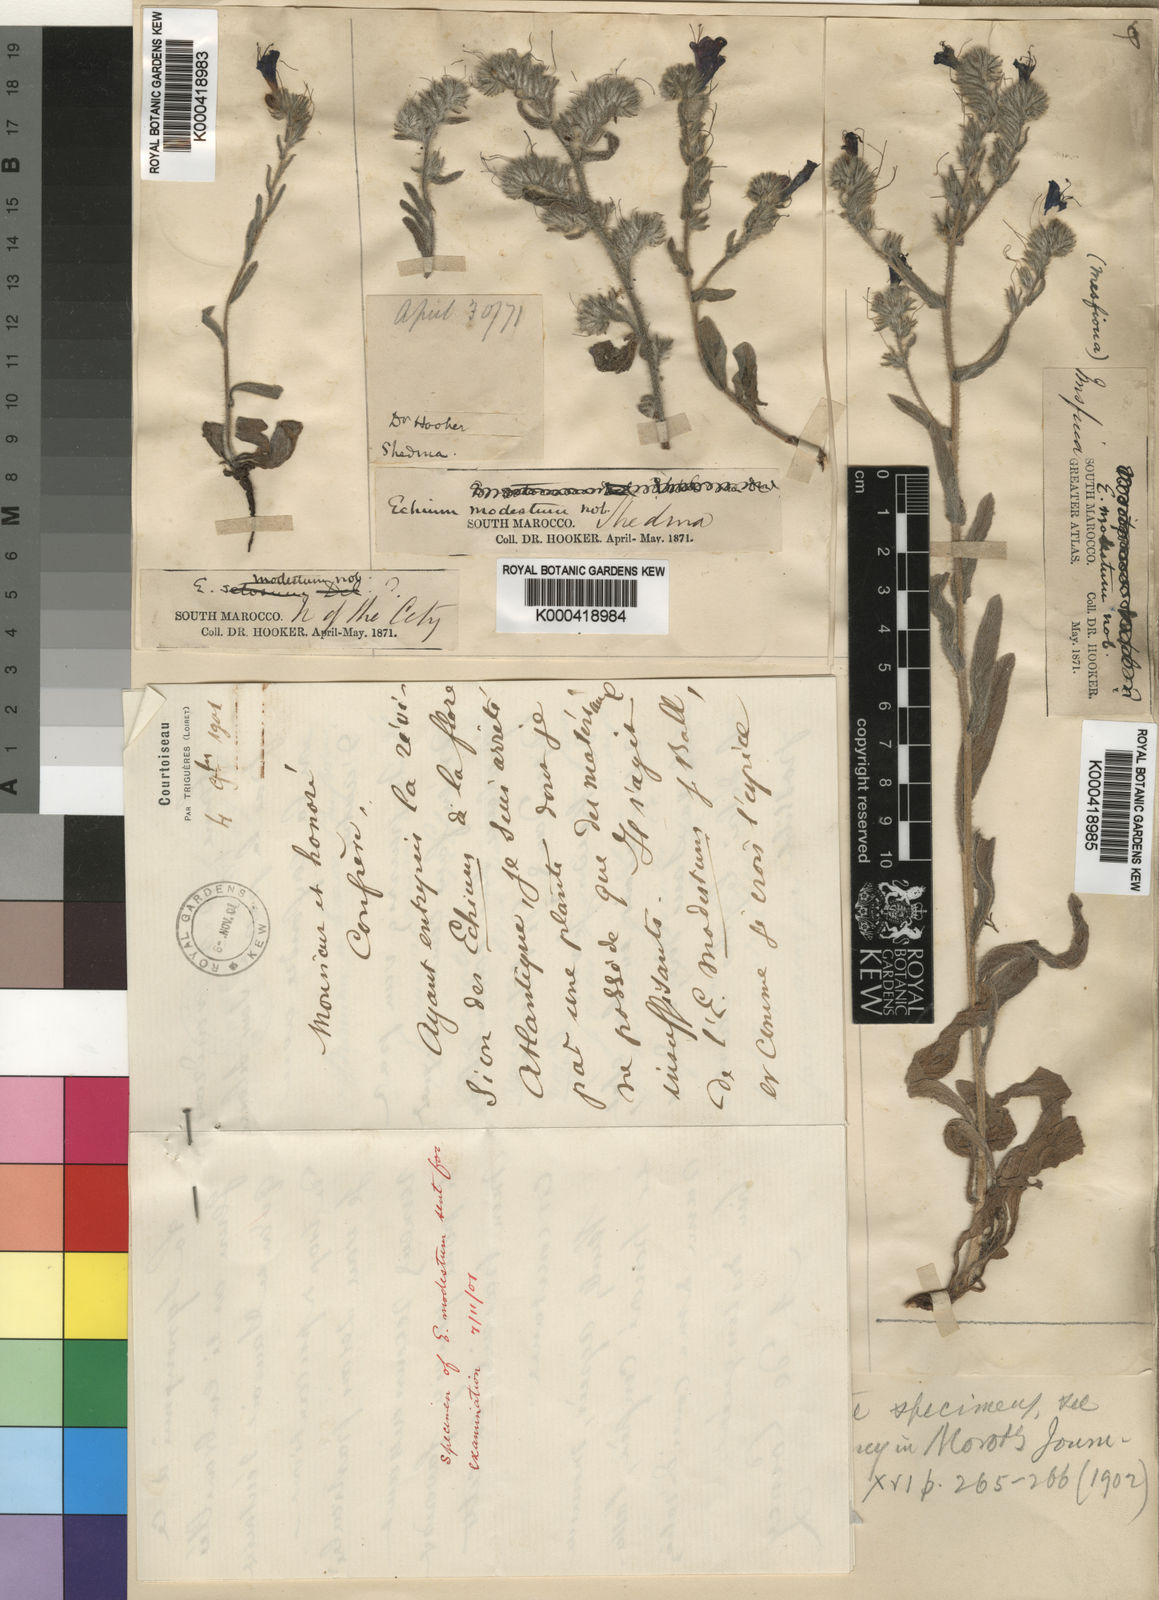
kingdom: Plantae
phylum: Tracheophyta
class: Magnoliopsida
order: Boraginales
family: Boraginaceae
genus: Echium
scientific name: Echium modestum
